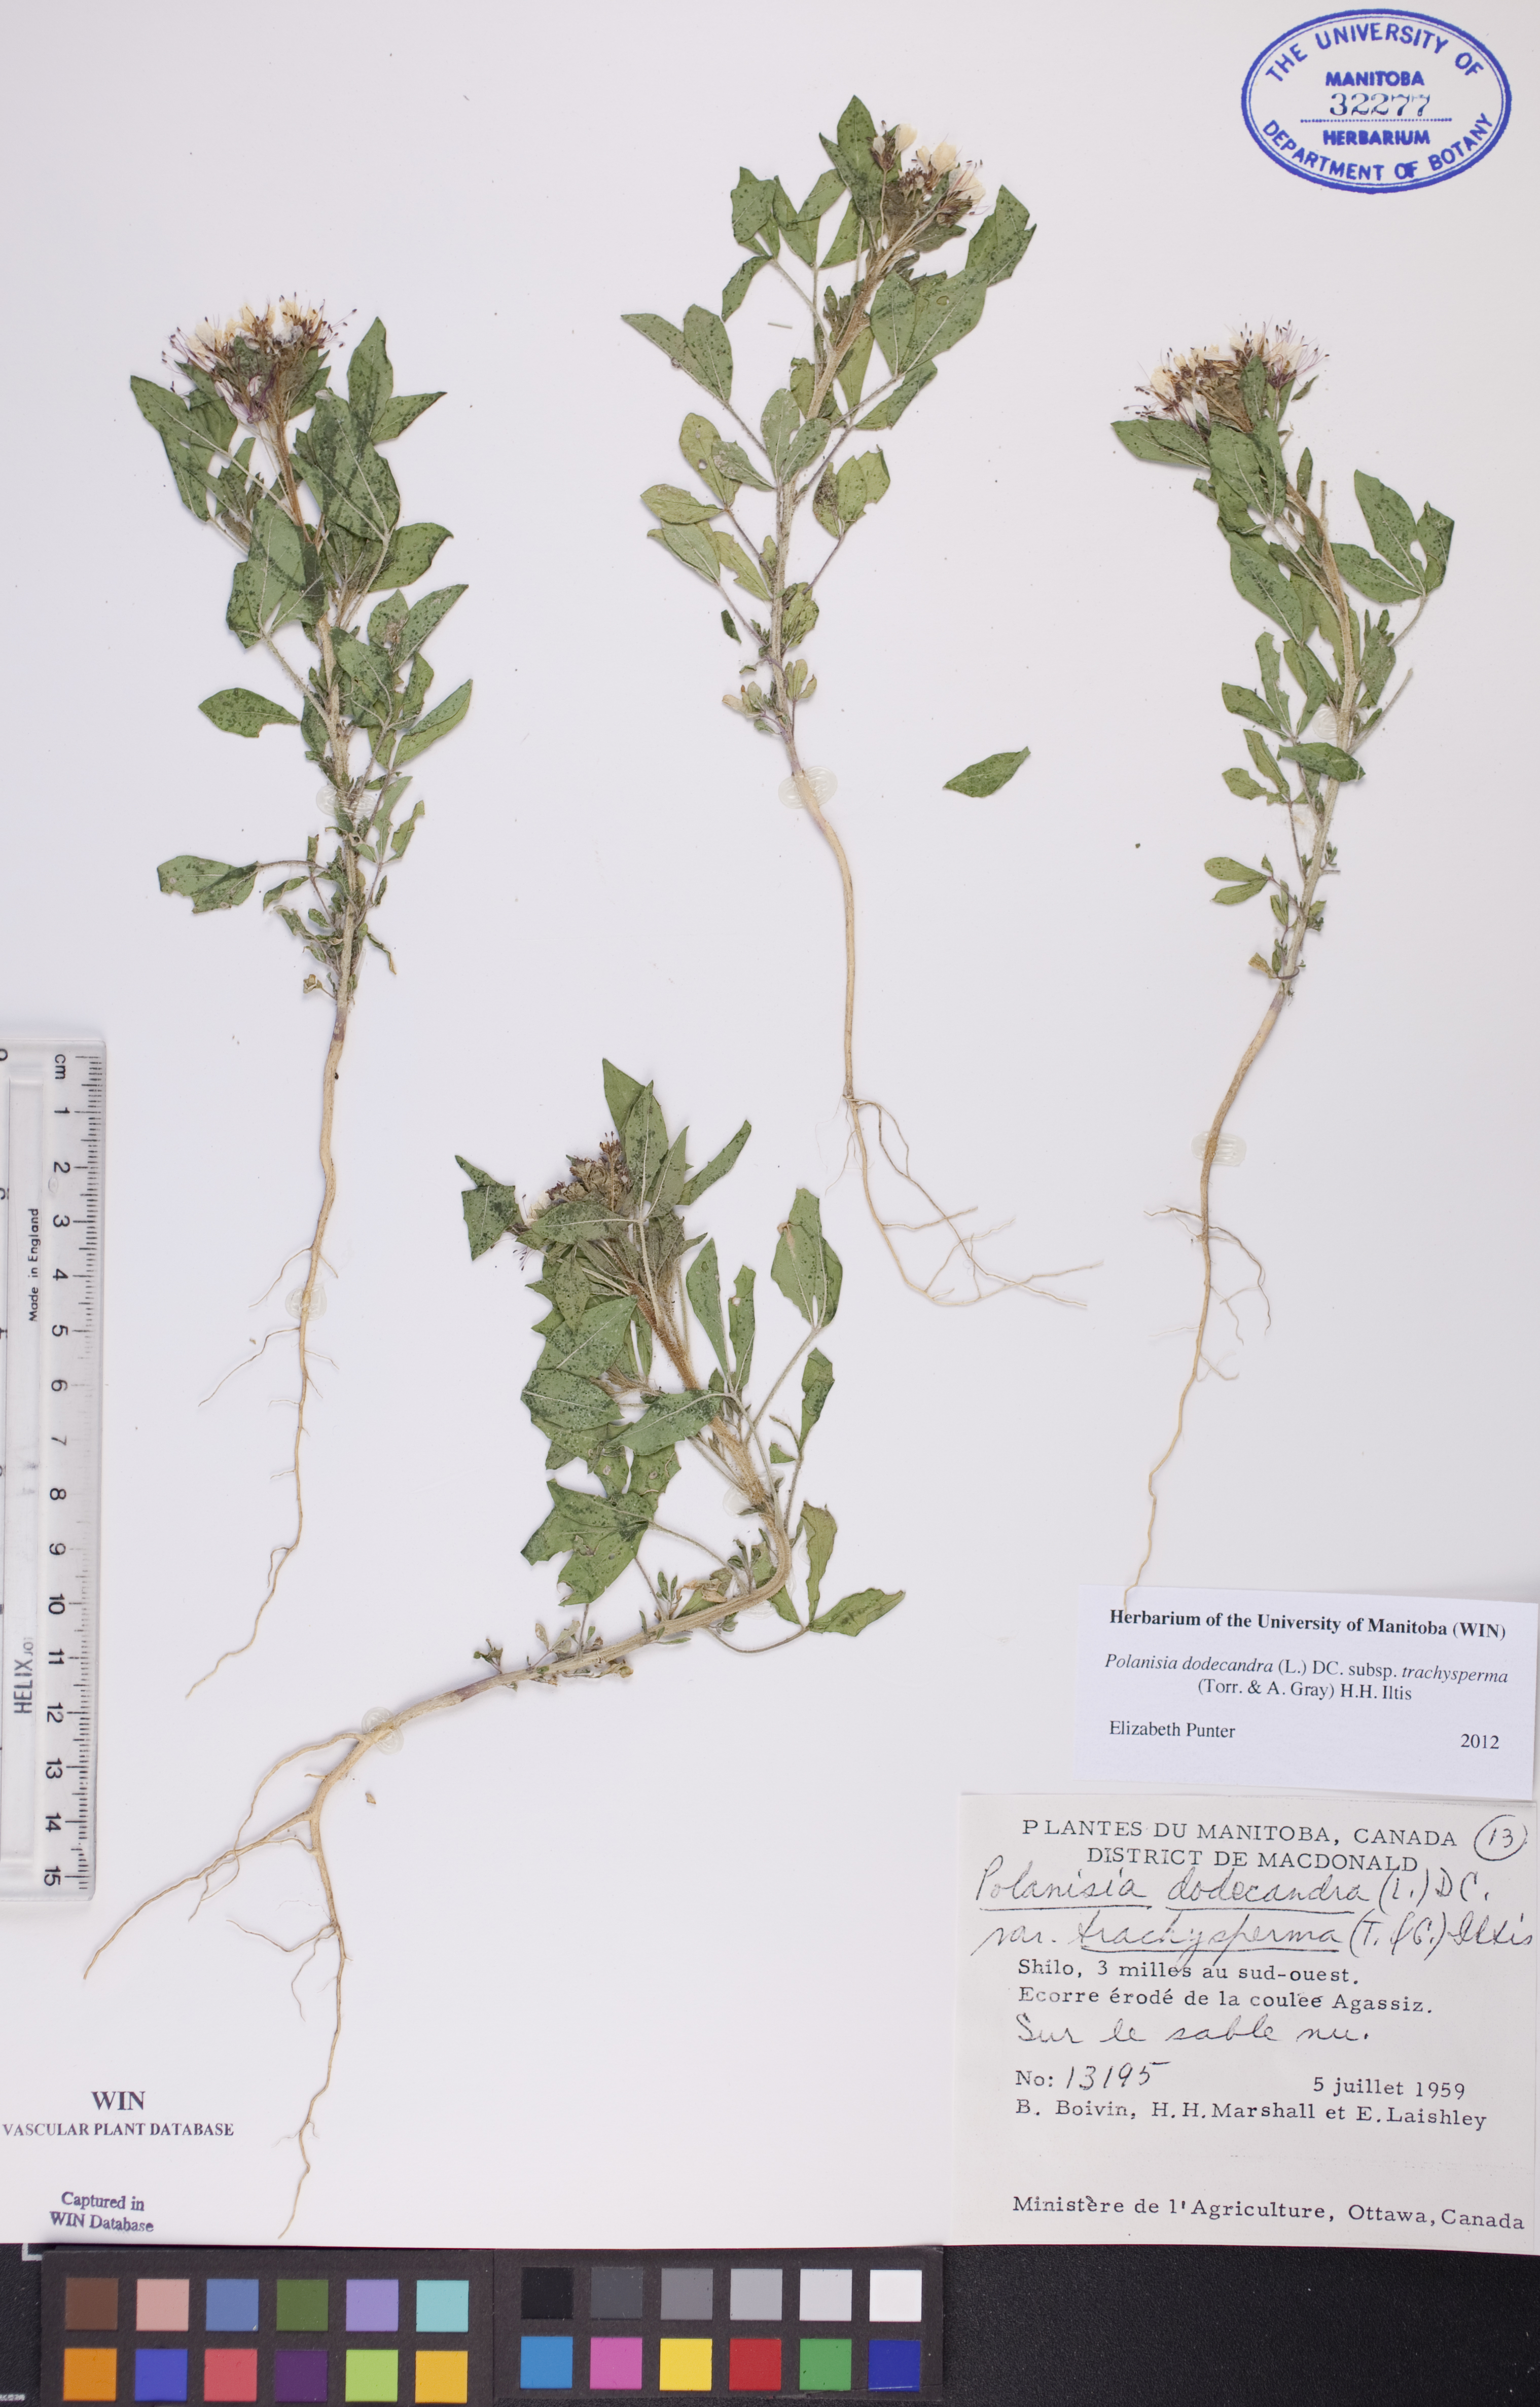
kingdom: Plantae
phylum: Tracheophyta
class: Magnoliopsida
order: Brassicales
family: Cleomaceae
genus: Polanisia
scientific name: Polanisia trachysperma
